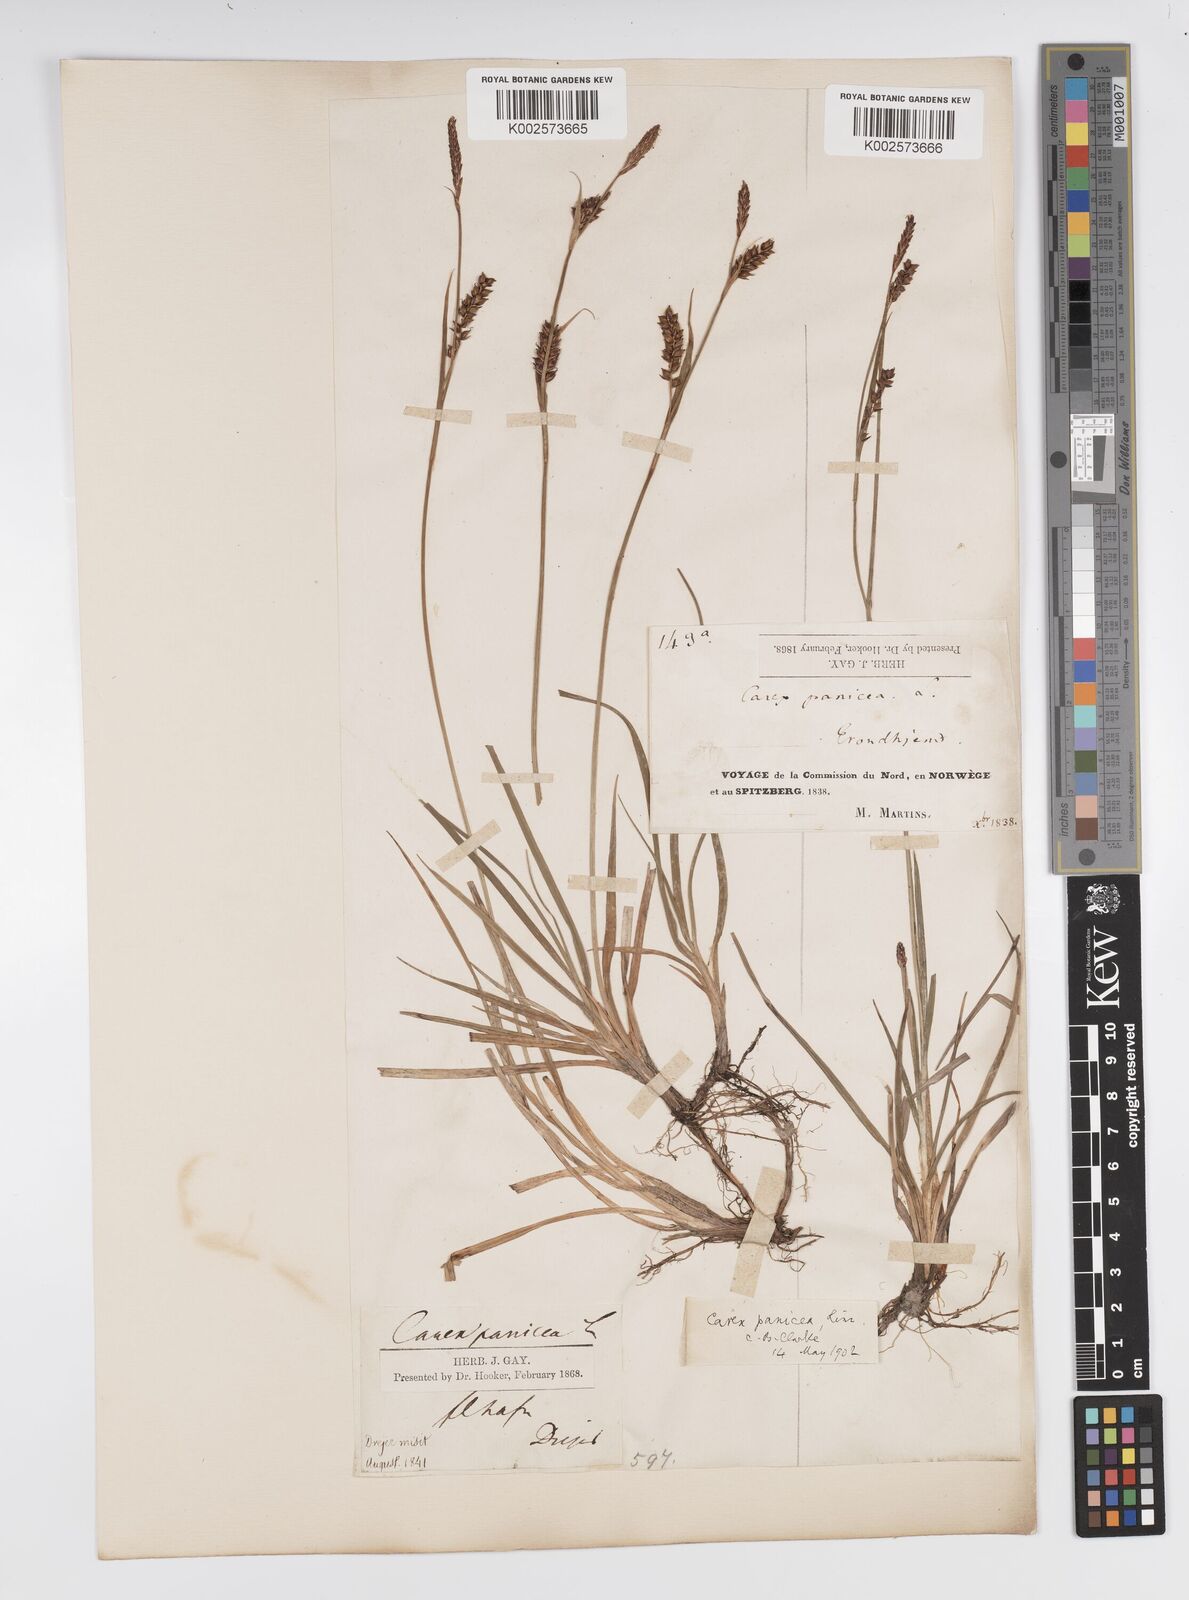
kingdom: Plantae
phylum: Tracheophyta
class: Liliopsida
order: Poales
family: Cyperaceae
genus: Carex
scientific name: Carex panicea
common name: Carnation sedge
